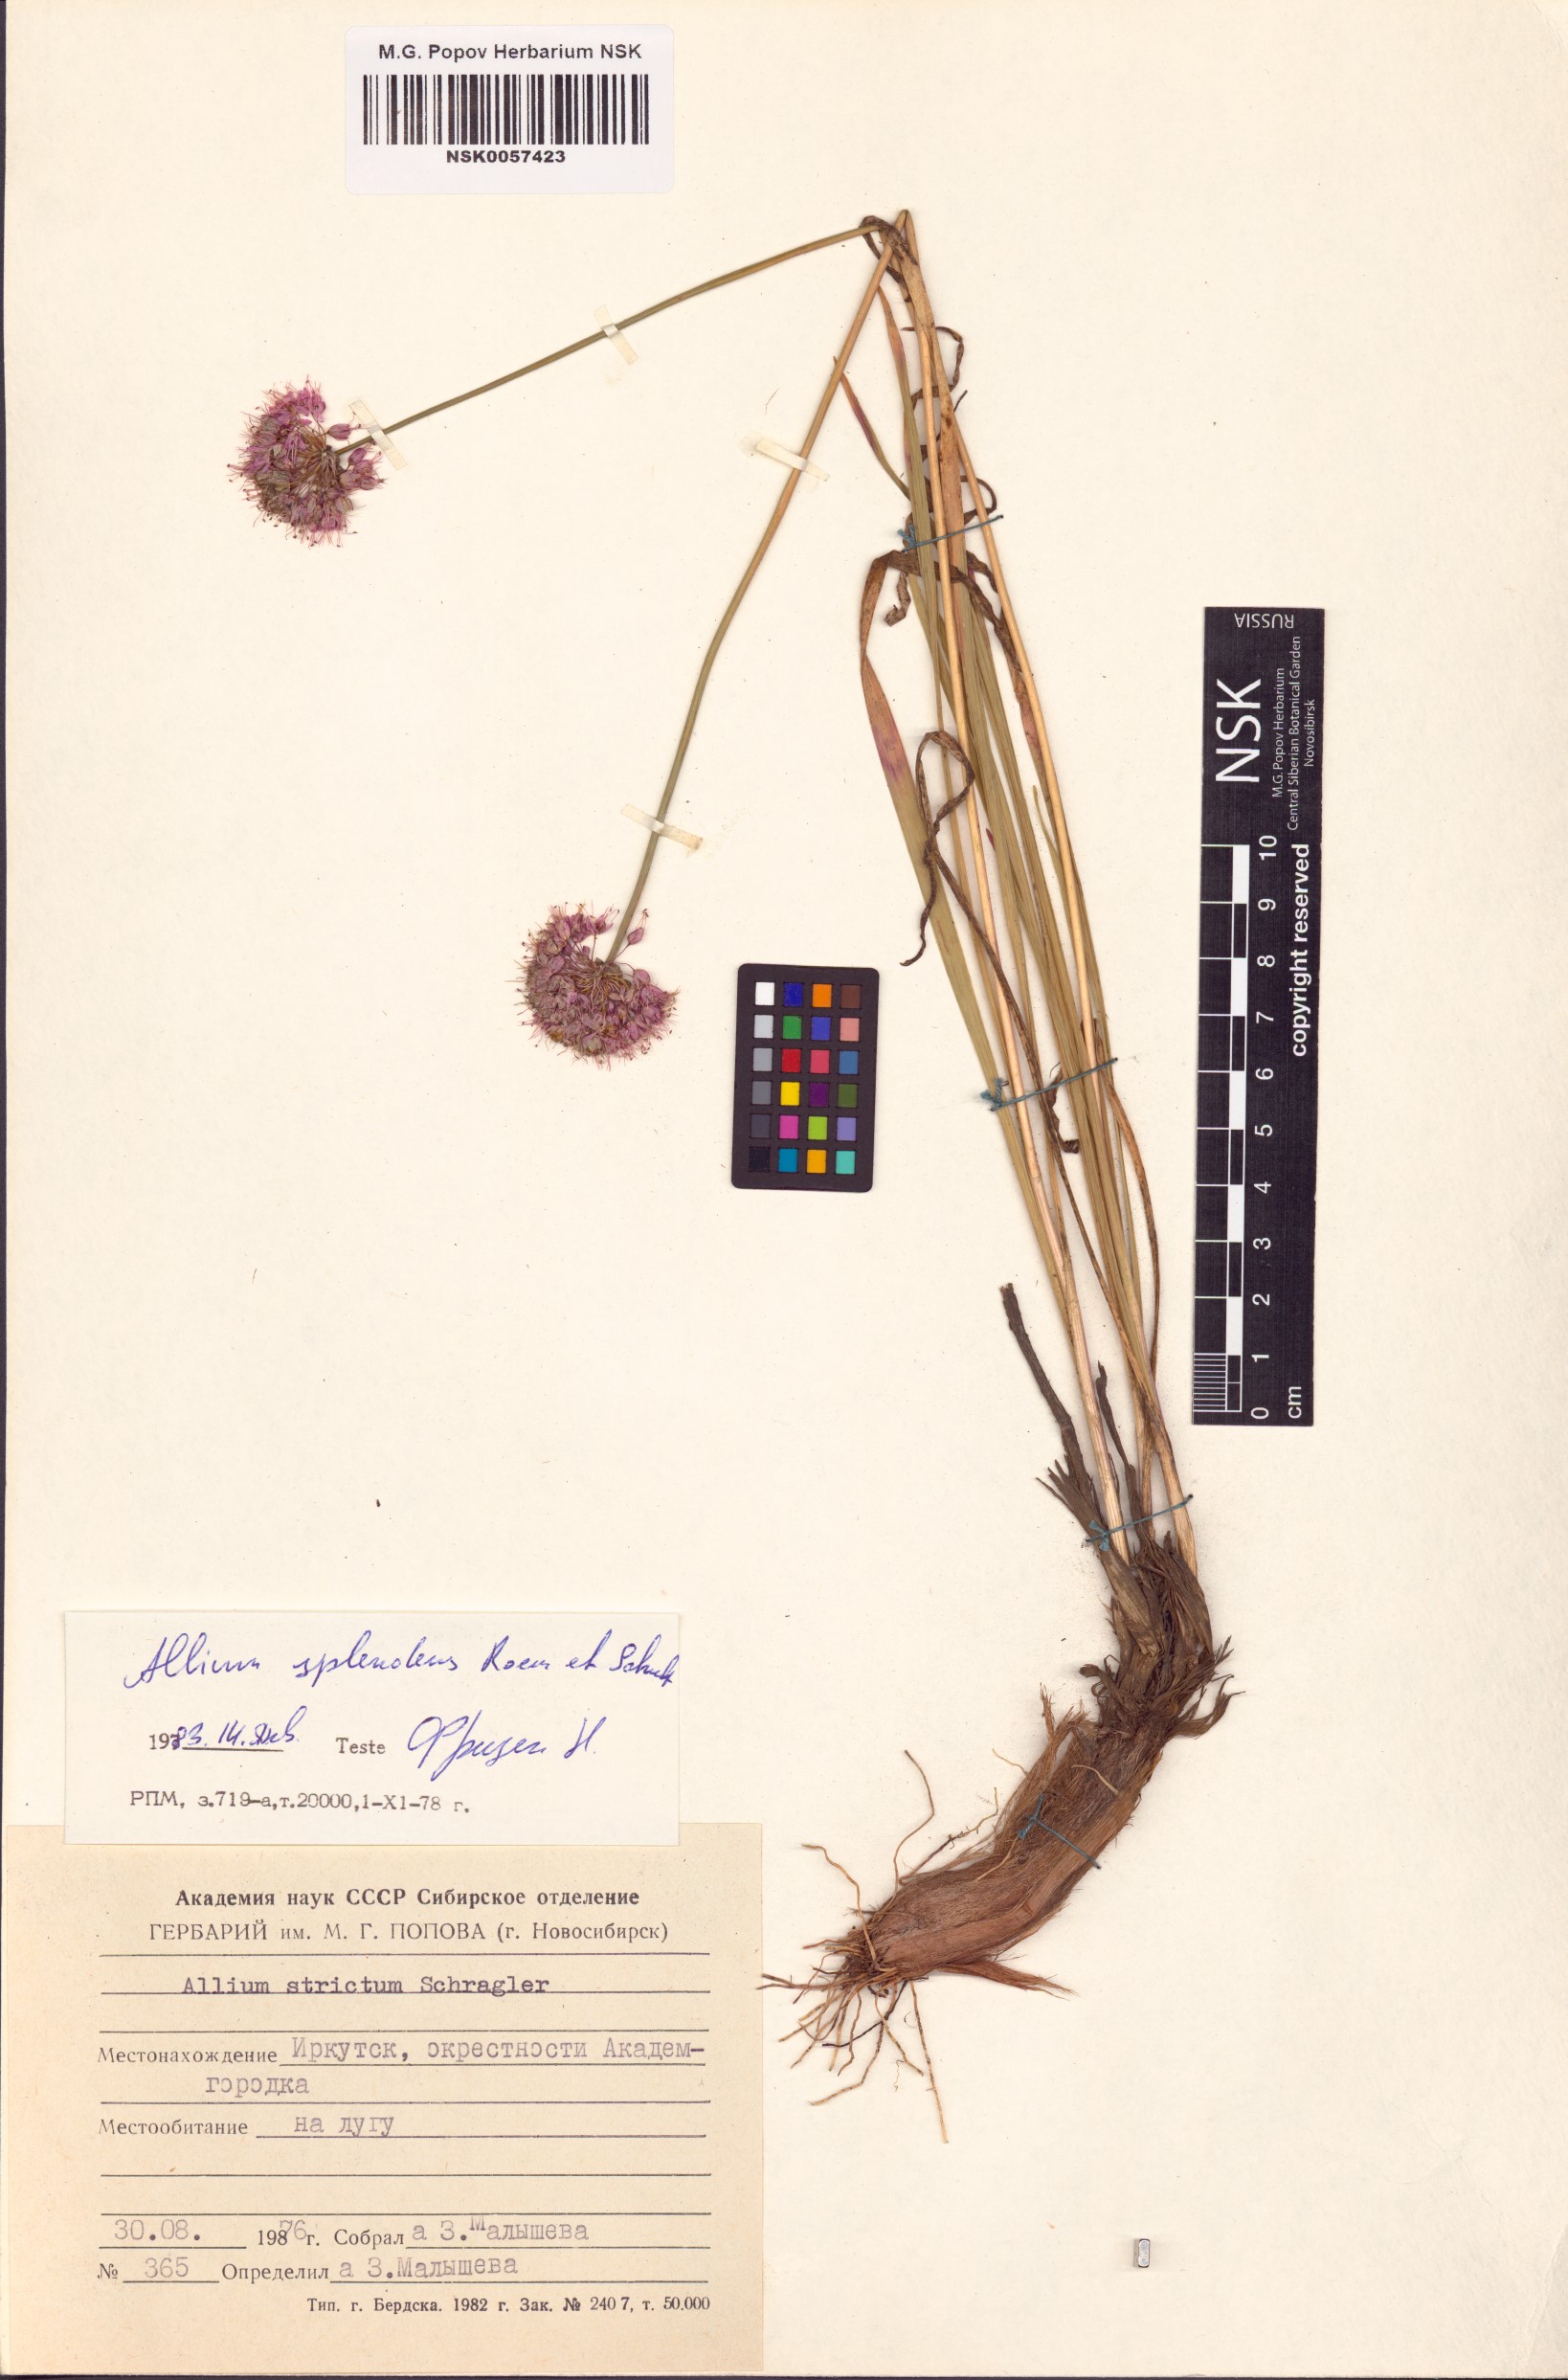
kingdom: Plantae
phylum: Tracheophyta
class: Liliopsida
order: Asparagales
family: Amaryllidaceae
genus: Allium
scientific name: Allium splendens
